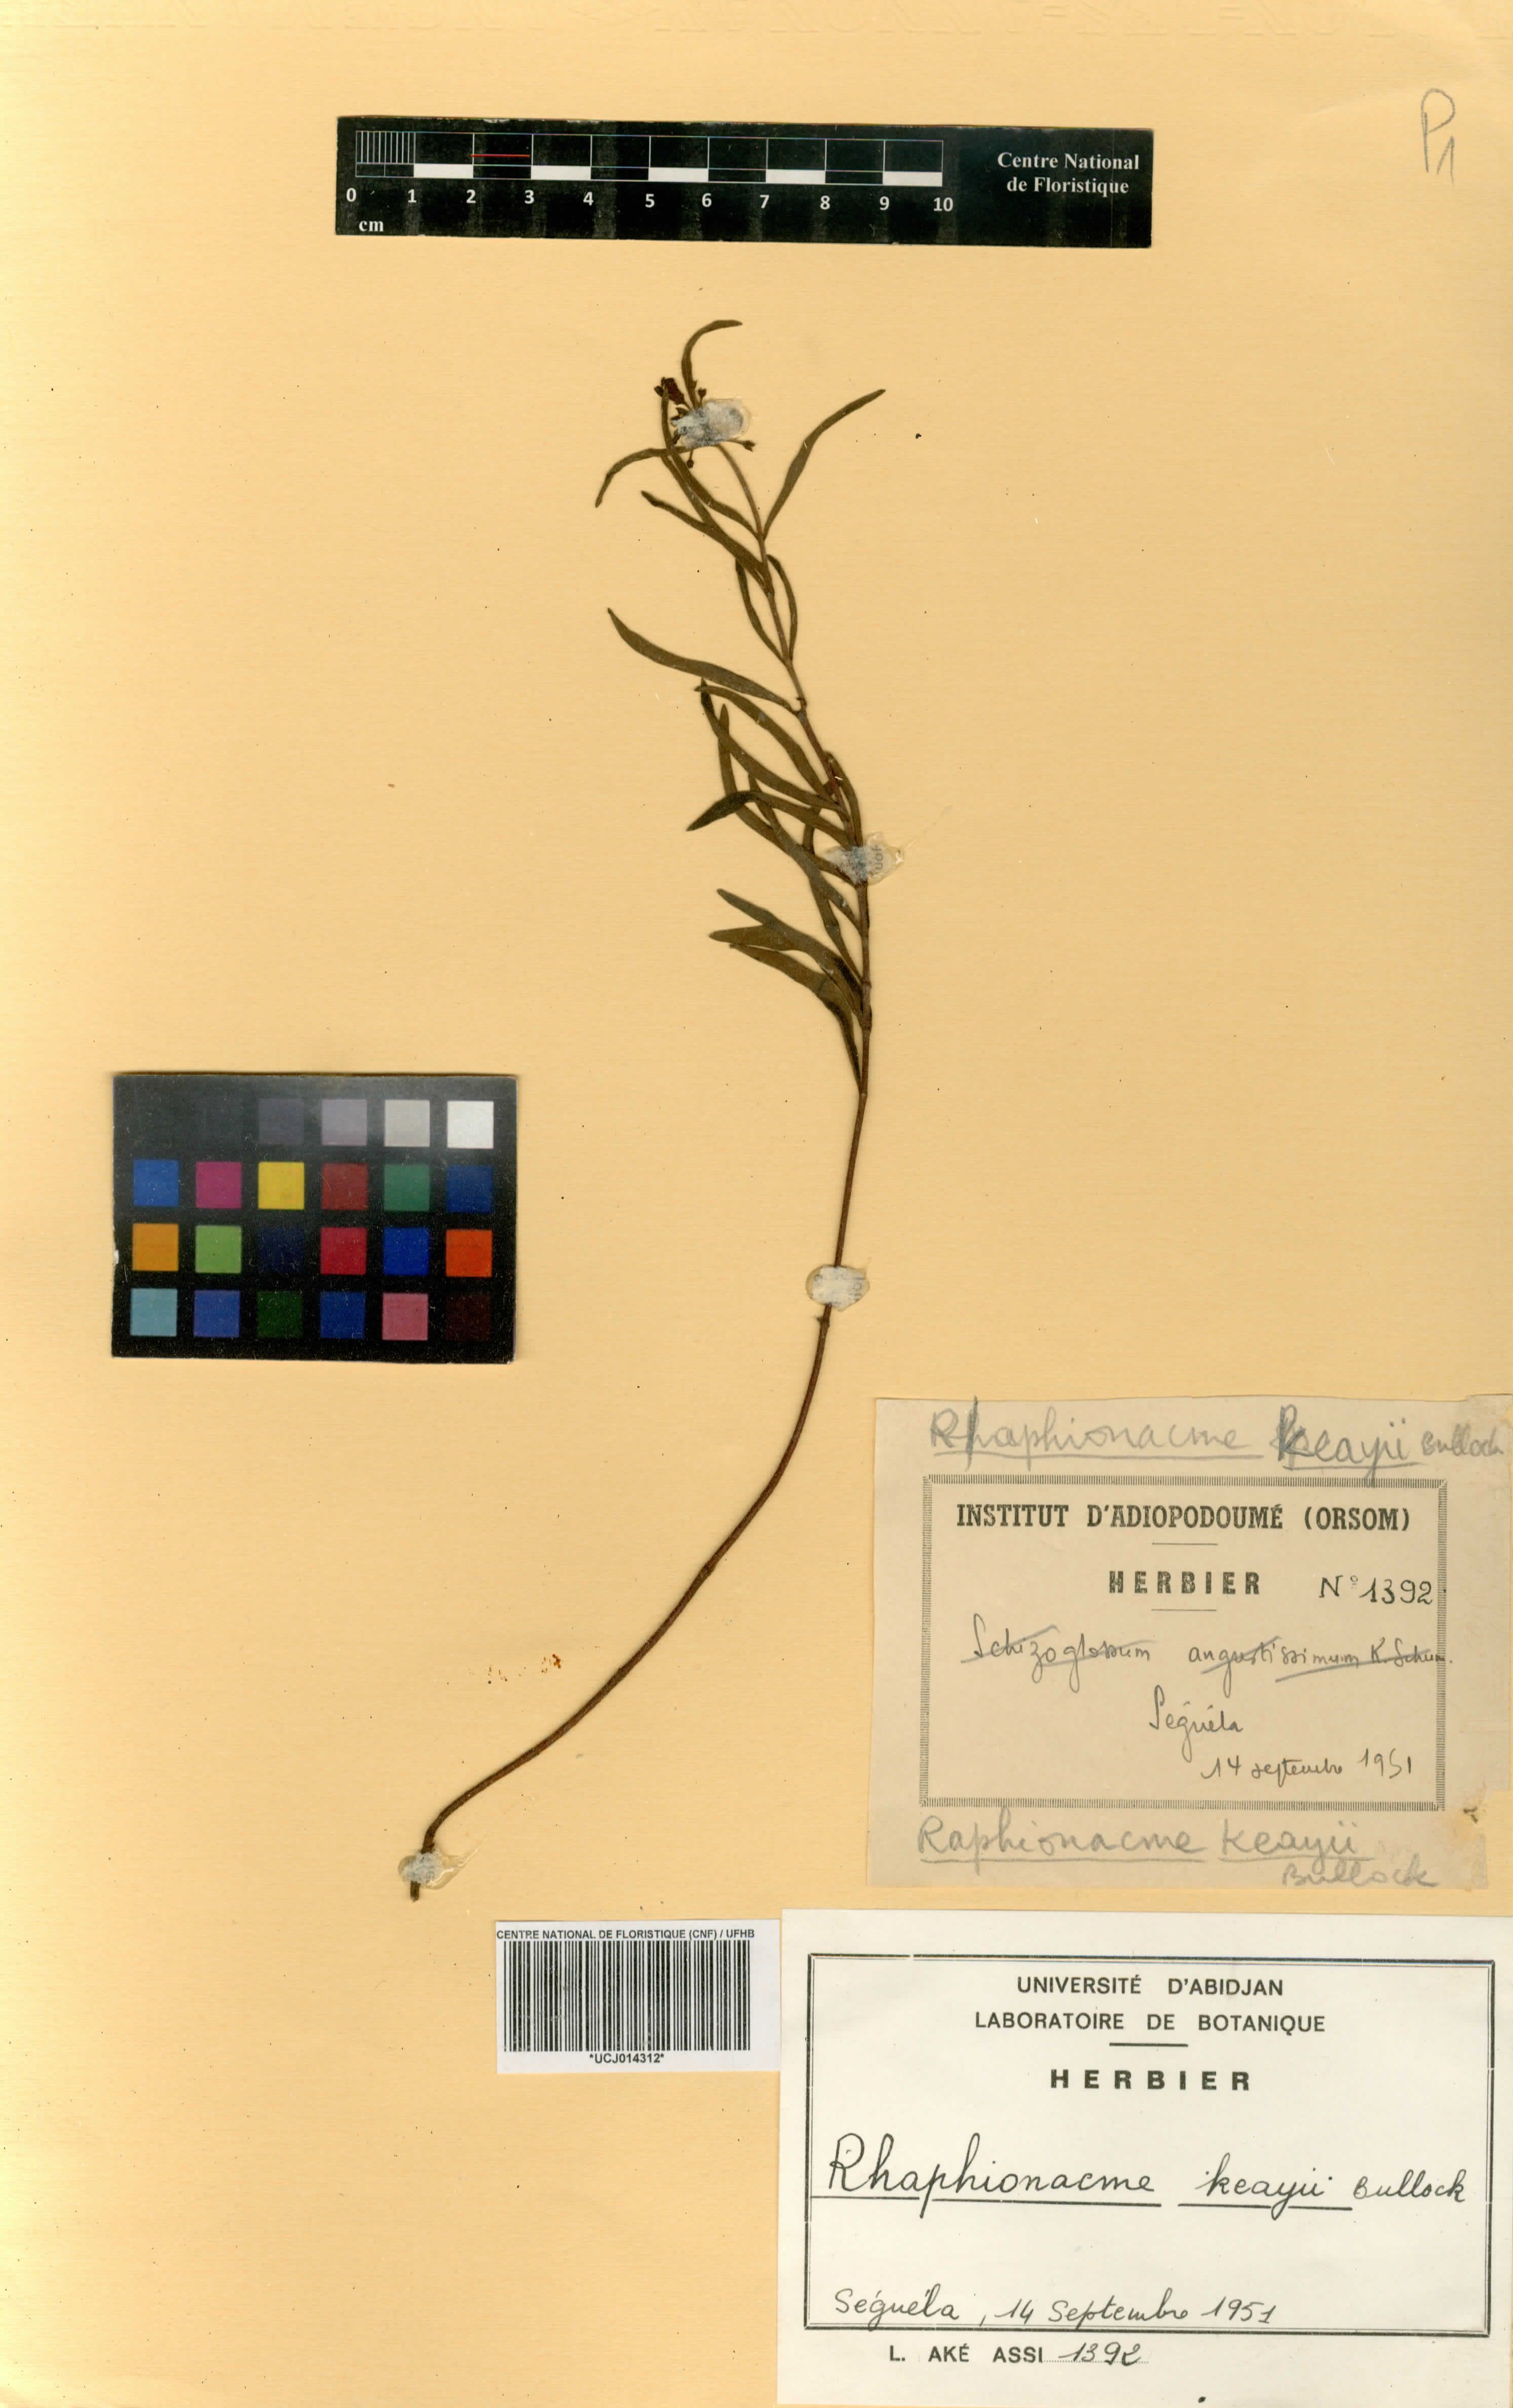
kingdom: Plantae
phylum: Tracheophyta
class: Magnoliopsida
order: Gentianales
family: Apocynaceae
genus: Raphionacme
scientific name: Raphionacme keayi
